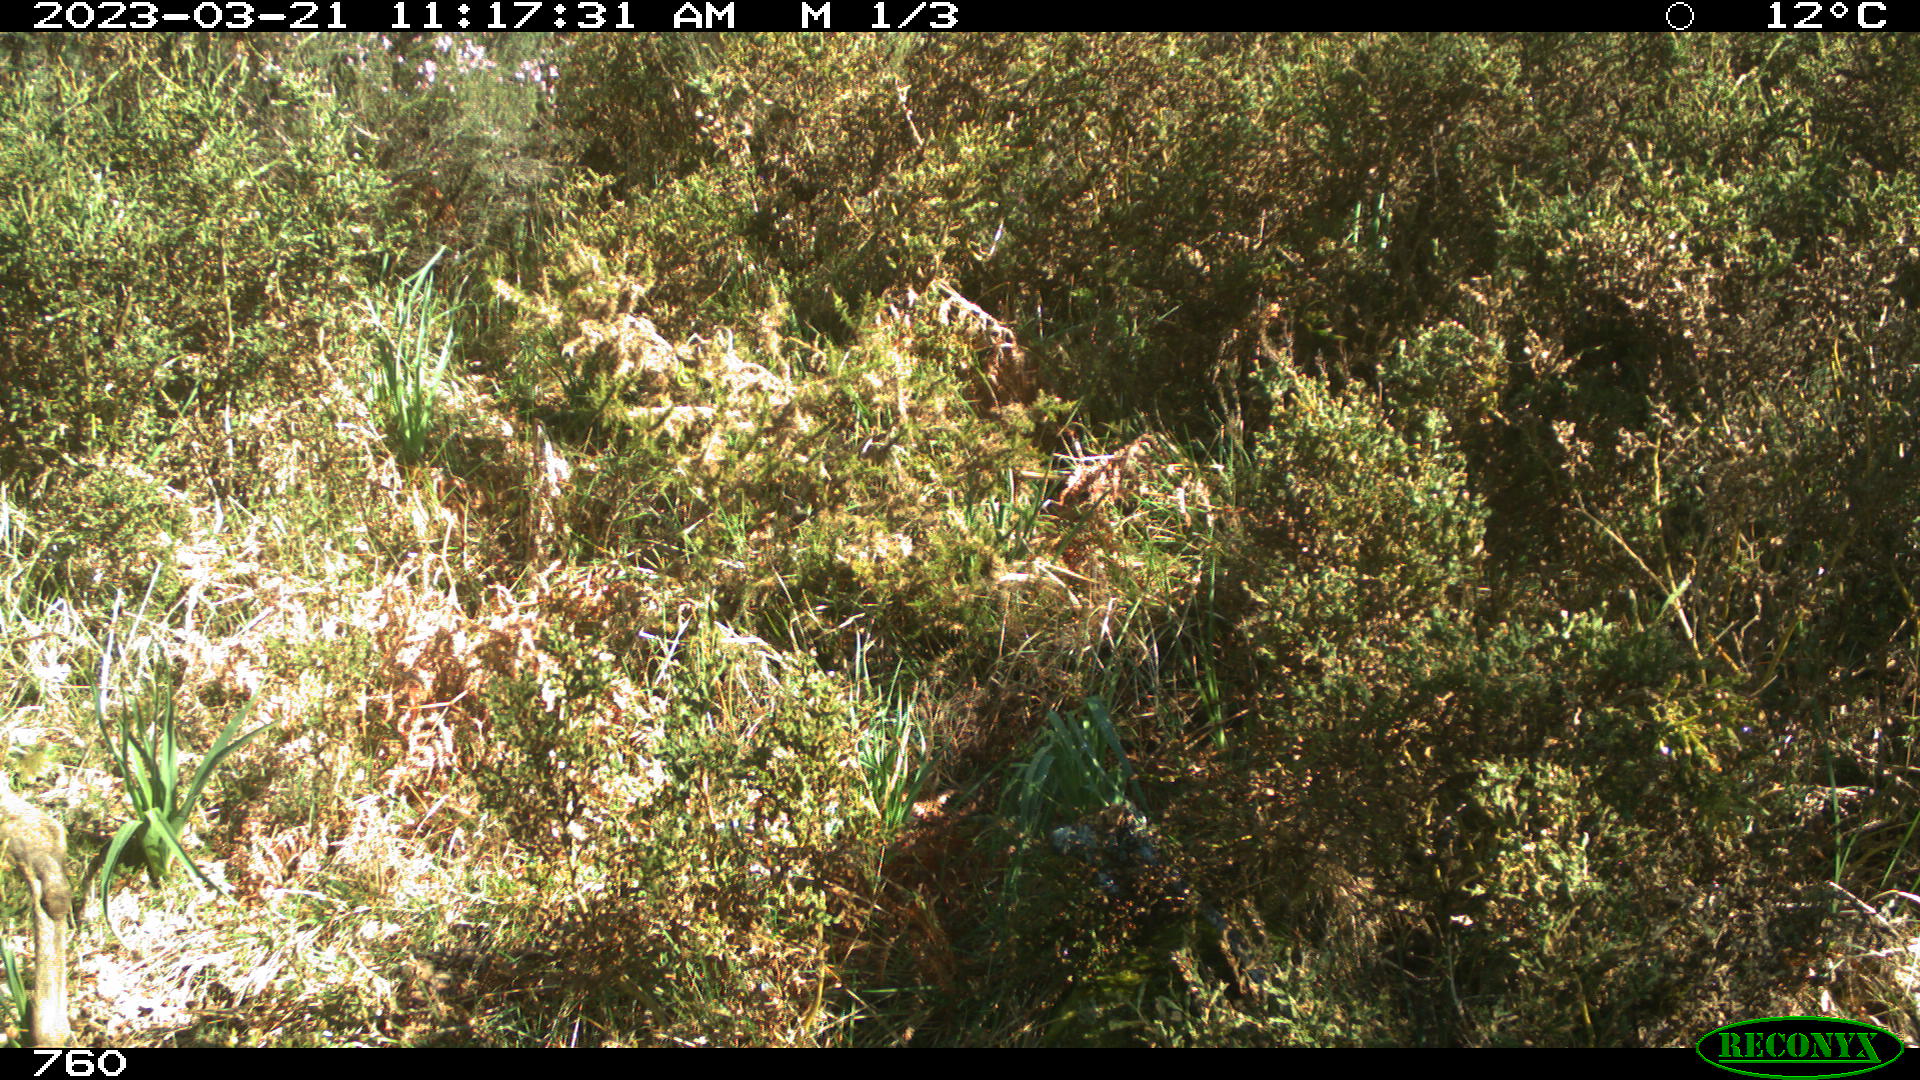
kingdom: Animalia
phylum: Chordata
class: Mammalia
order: Artiodactyla
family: Cervidae
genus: Capreolus
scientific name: Capreolus capreolus
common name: Western roe deer
